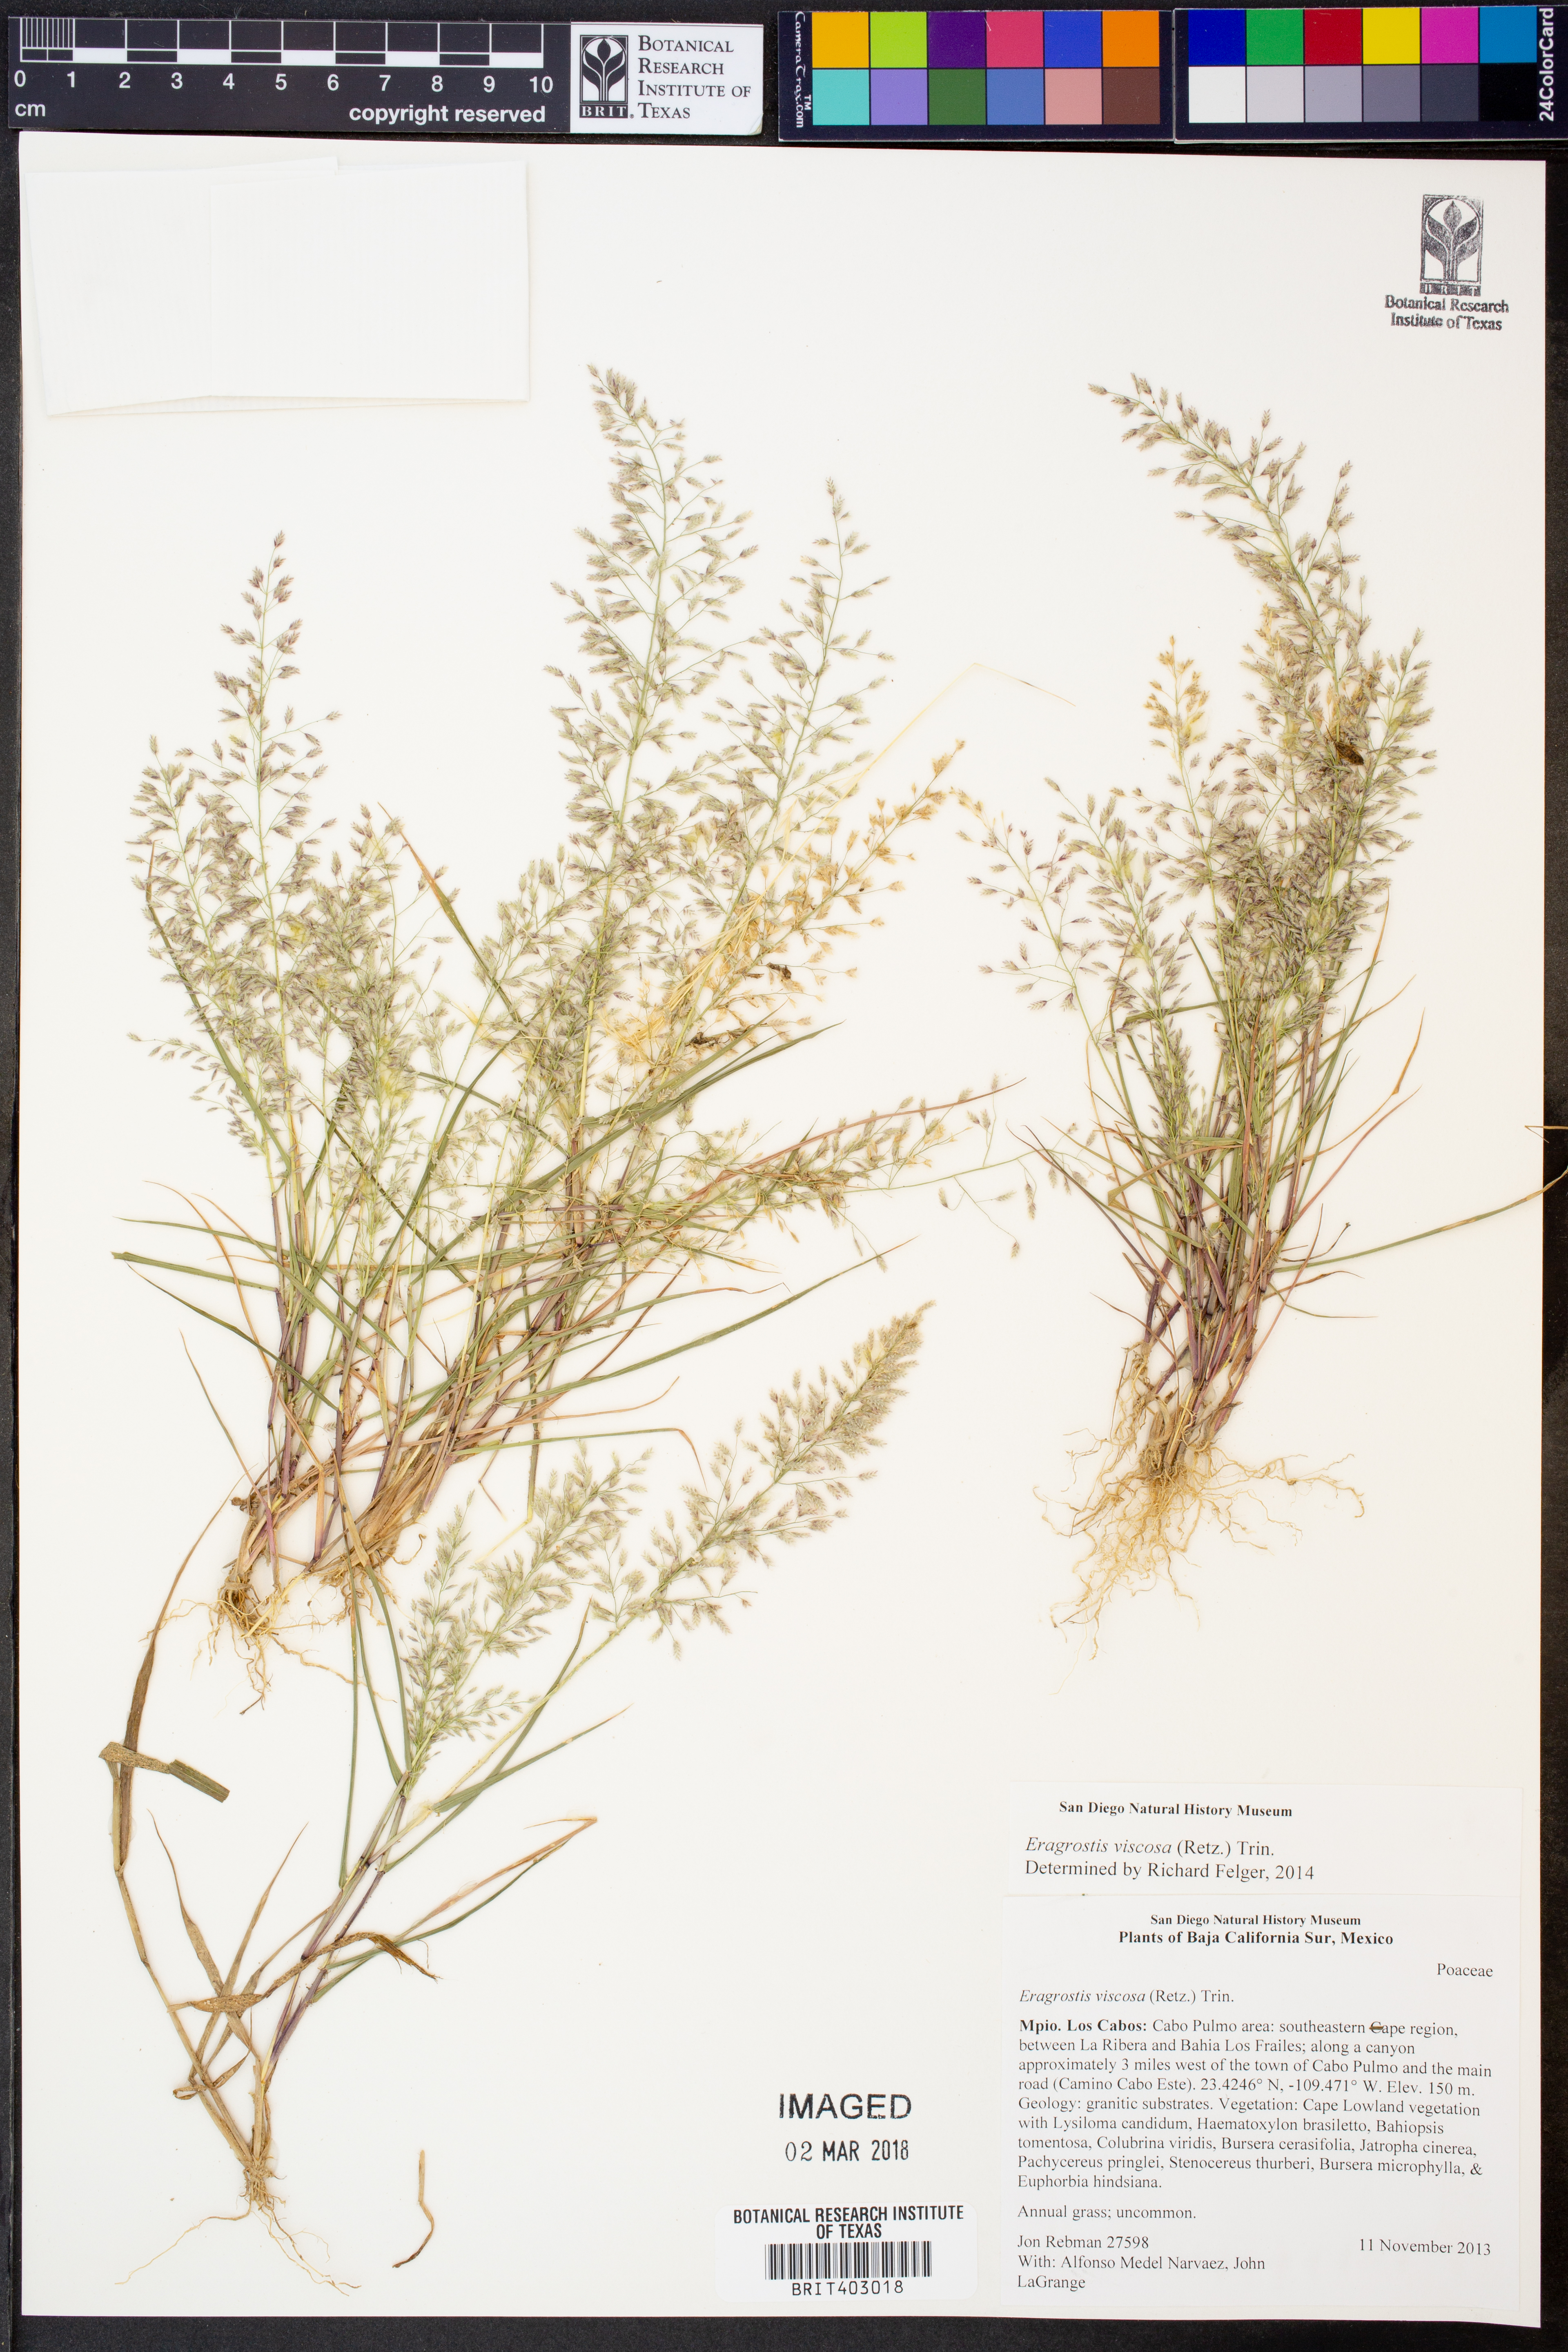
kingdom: Plantae
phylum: Tracheophyta
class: Liliopsida
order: Poales
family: Poaceae
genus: Eragrostis
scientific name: Eragrostis viscosa
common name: Sticky love grass
